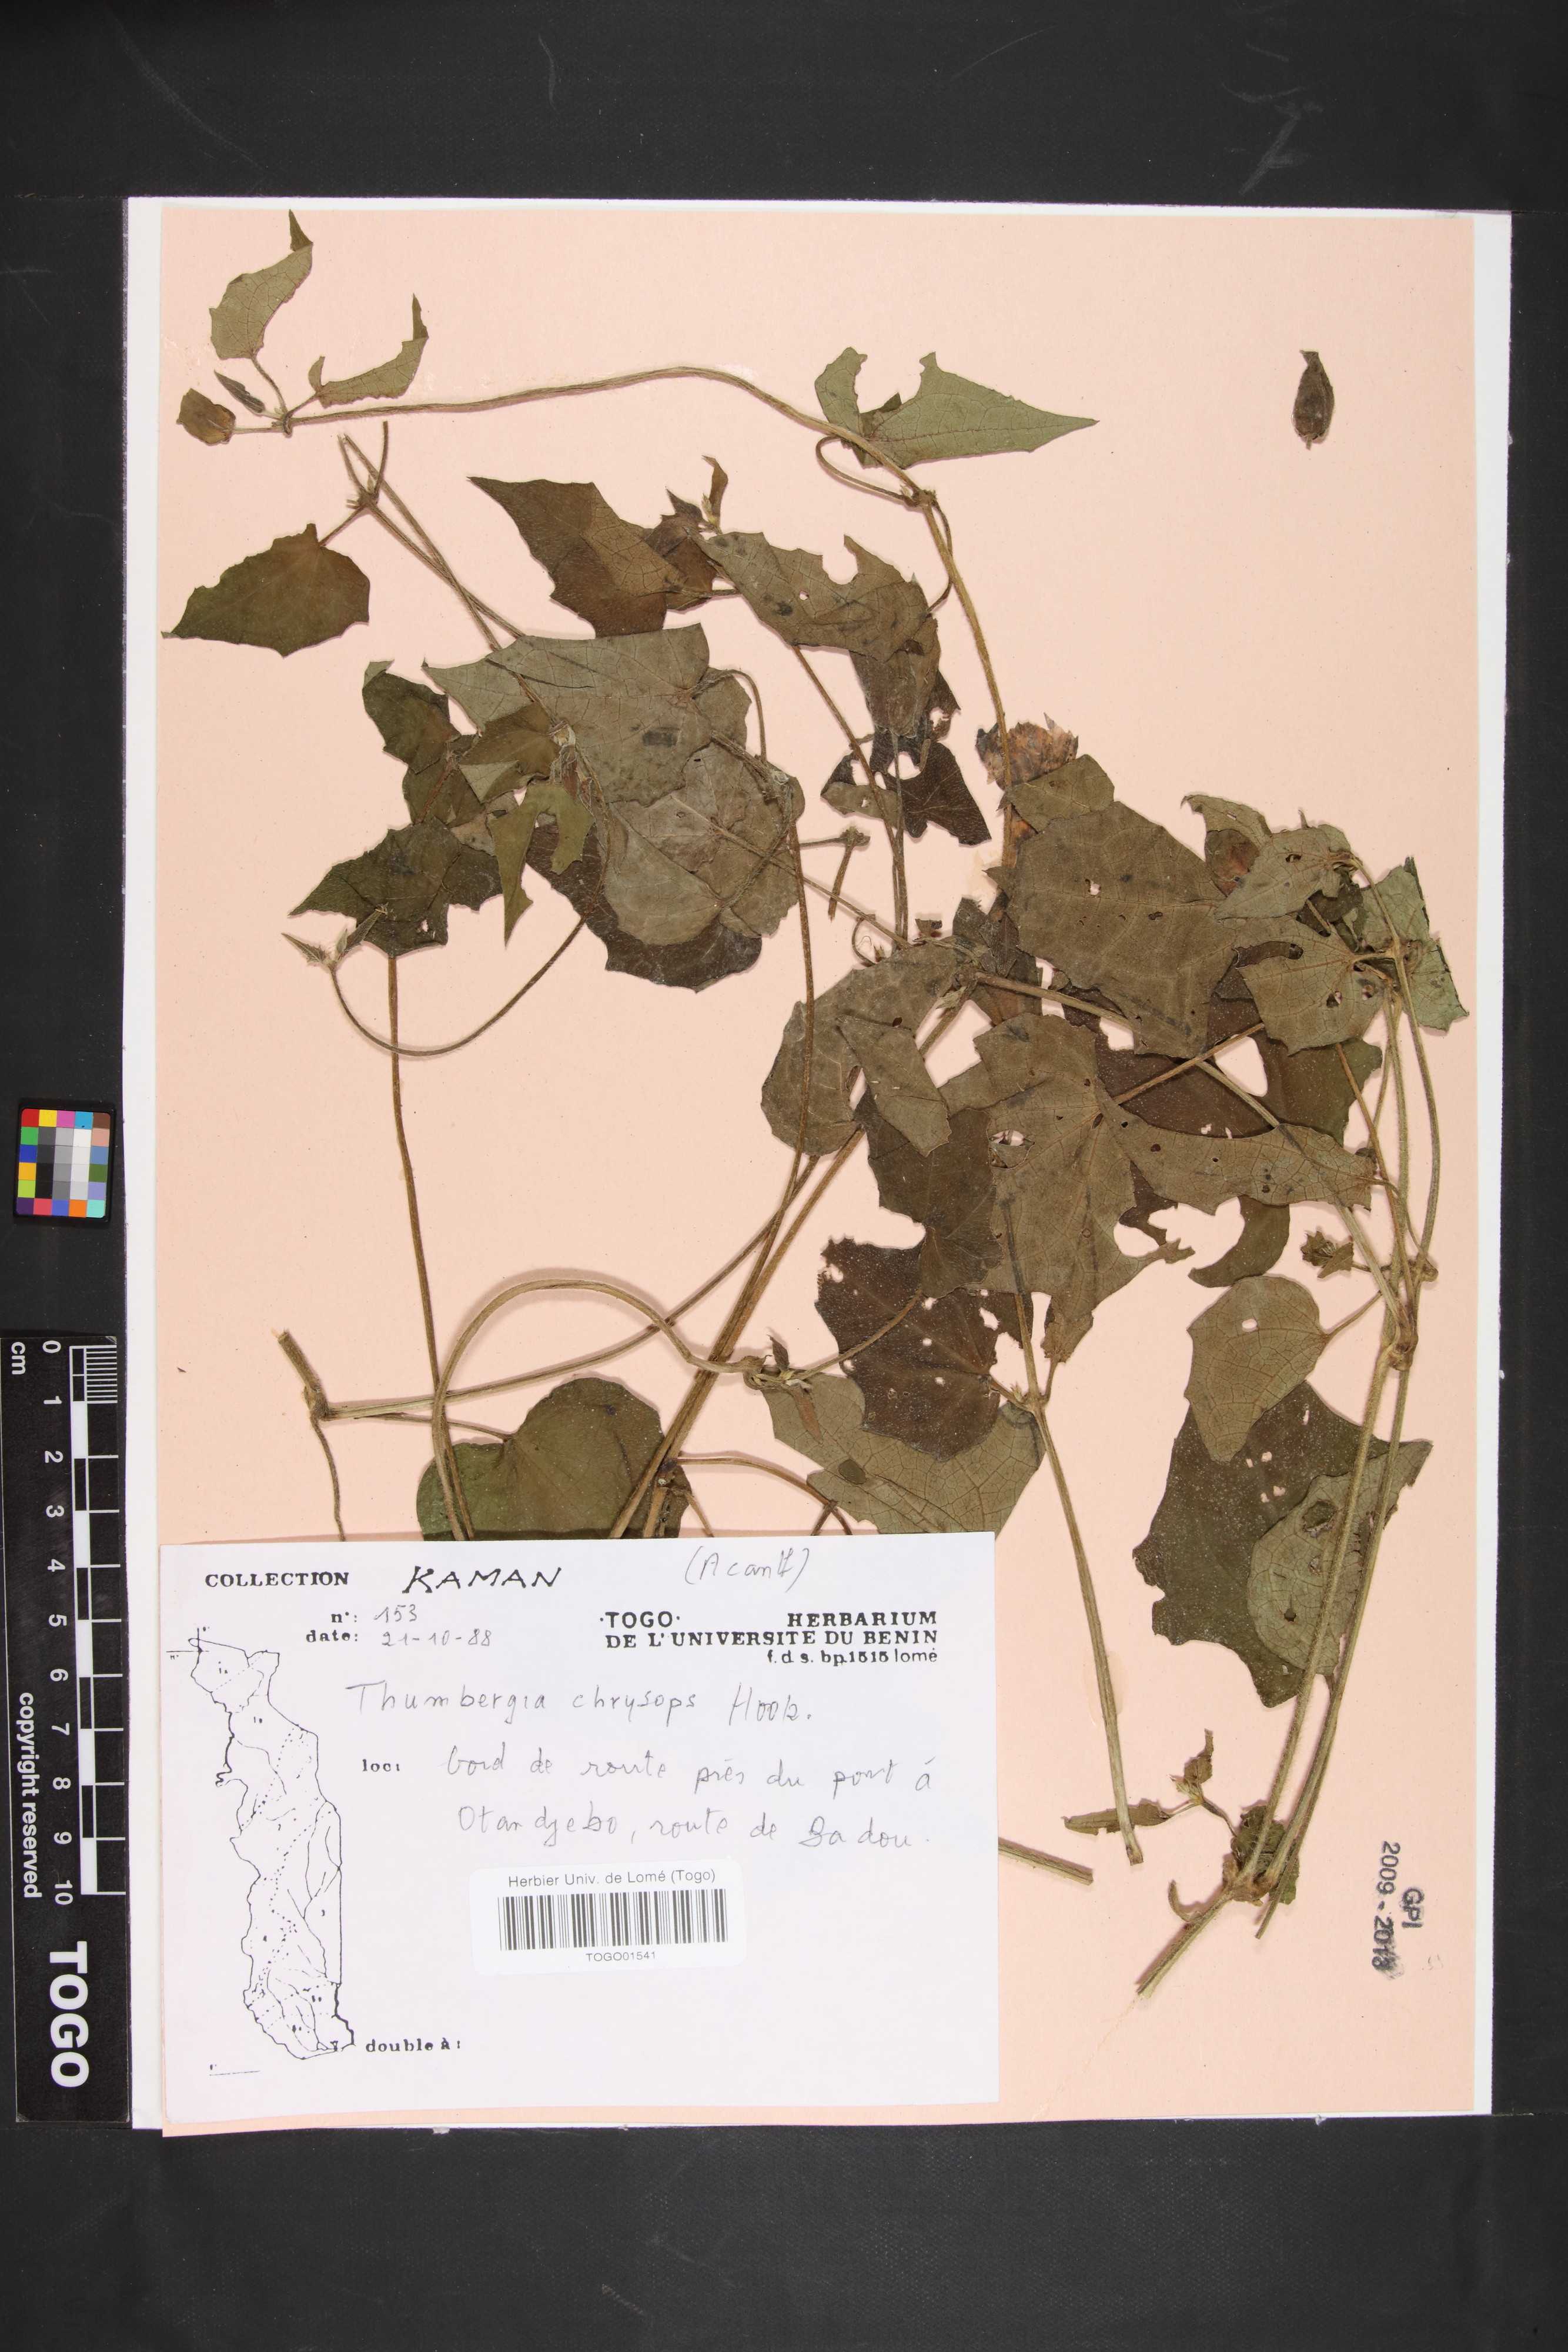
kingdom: Plantae
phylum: Tracheophyta
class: Magnoliopsida
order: Lamiales
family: Acanthaceae
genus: Thunbergia
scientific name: Thunbergia chrysops
